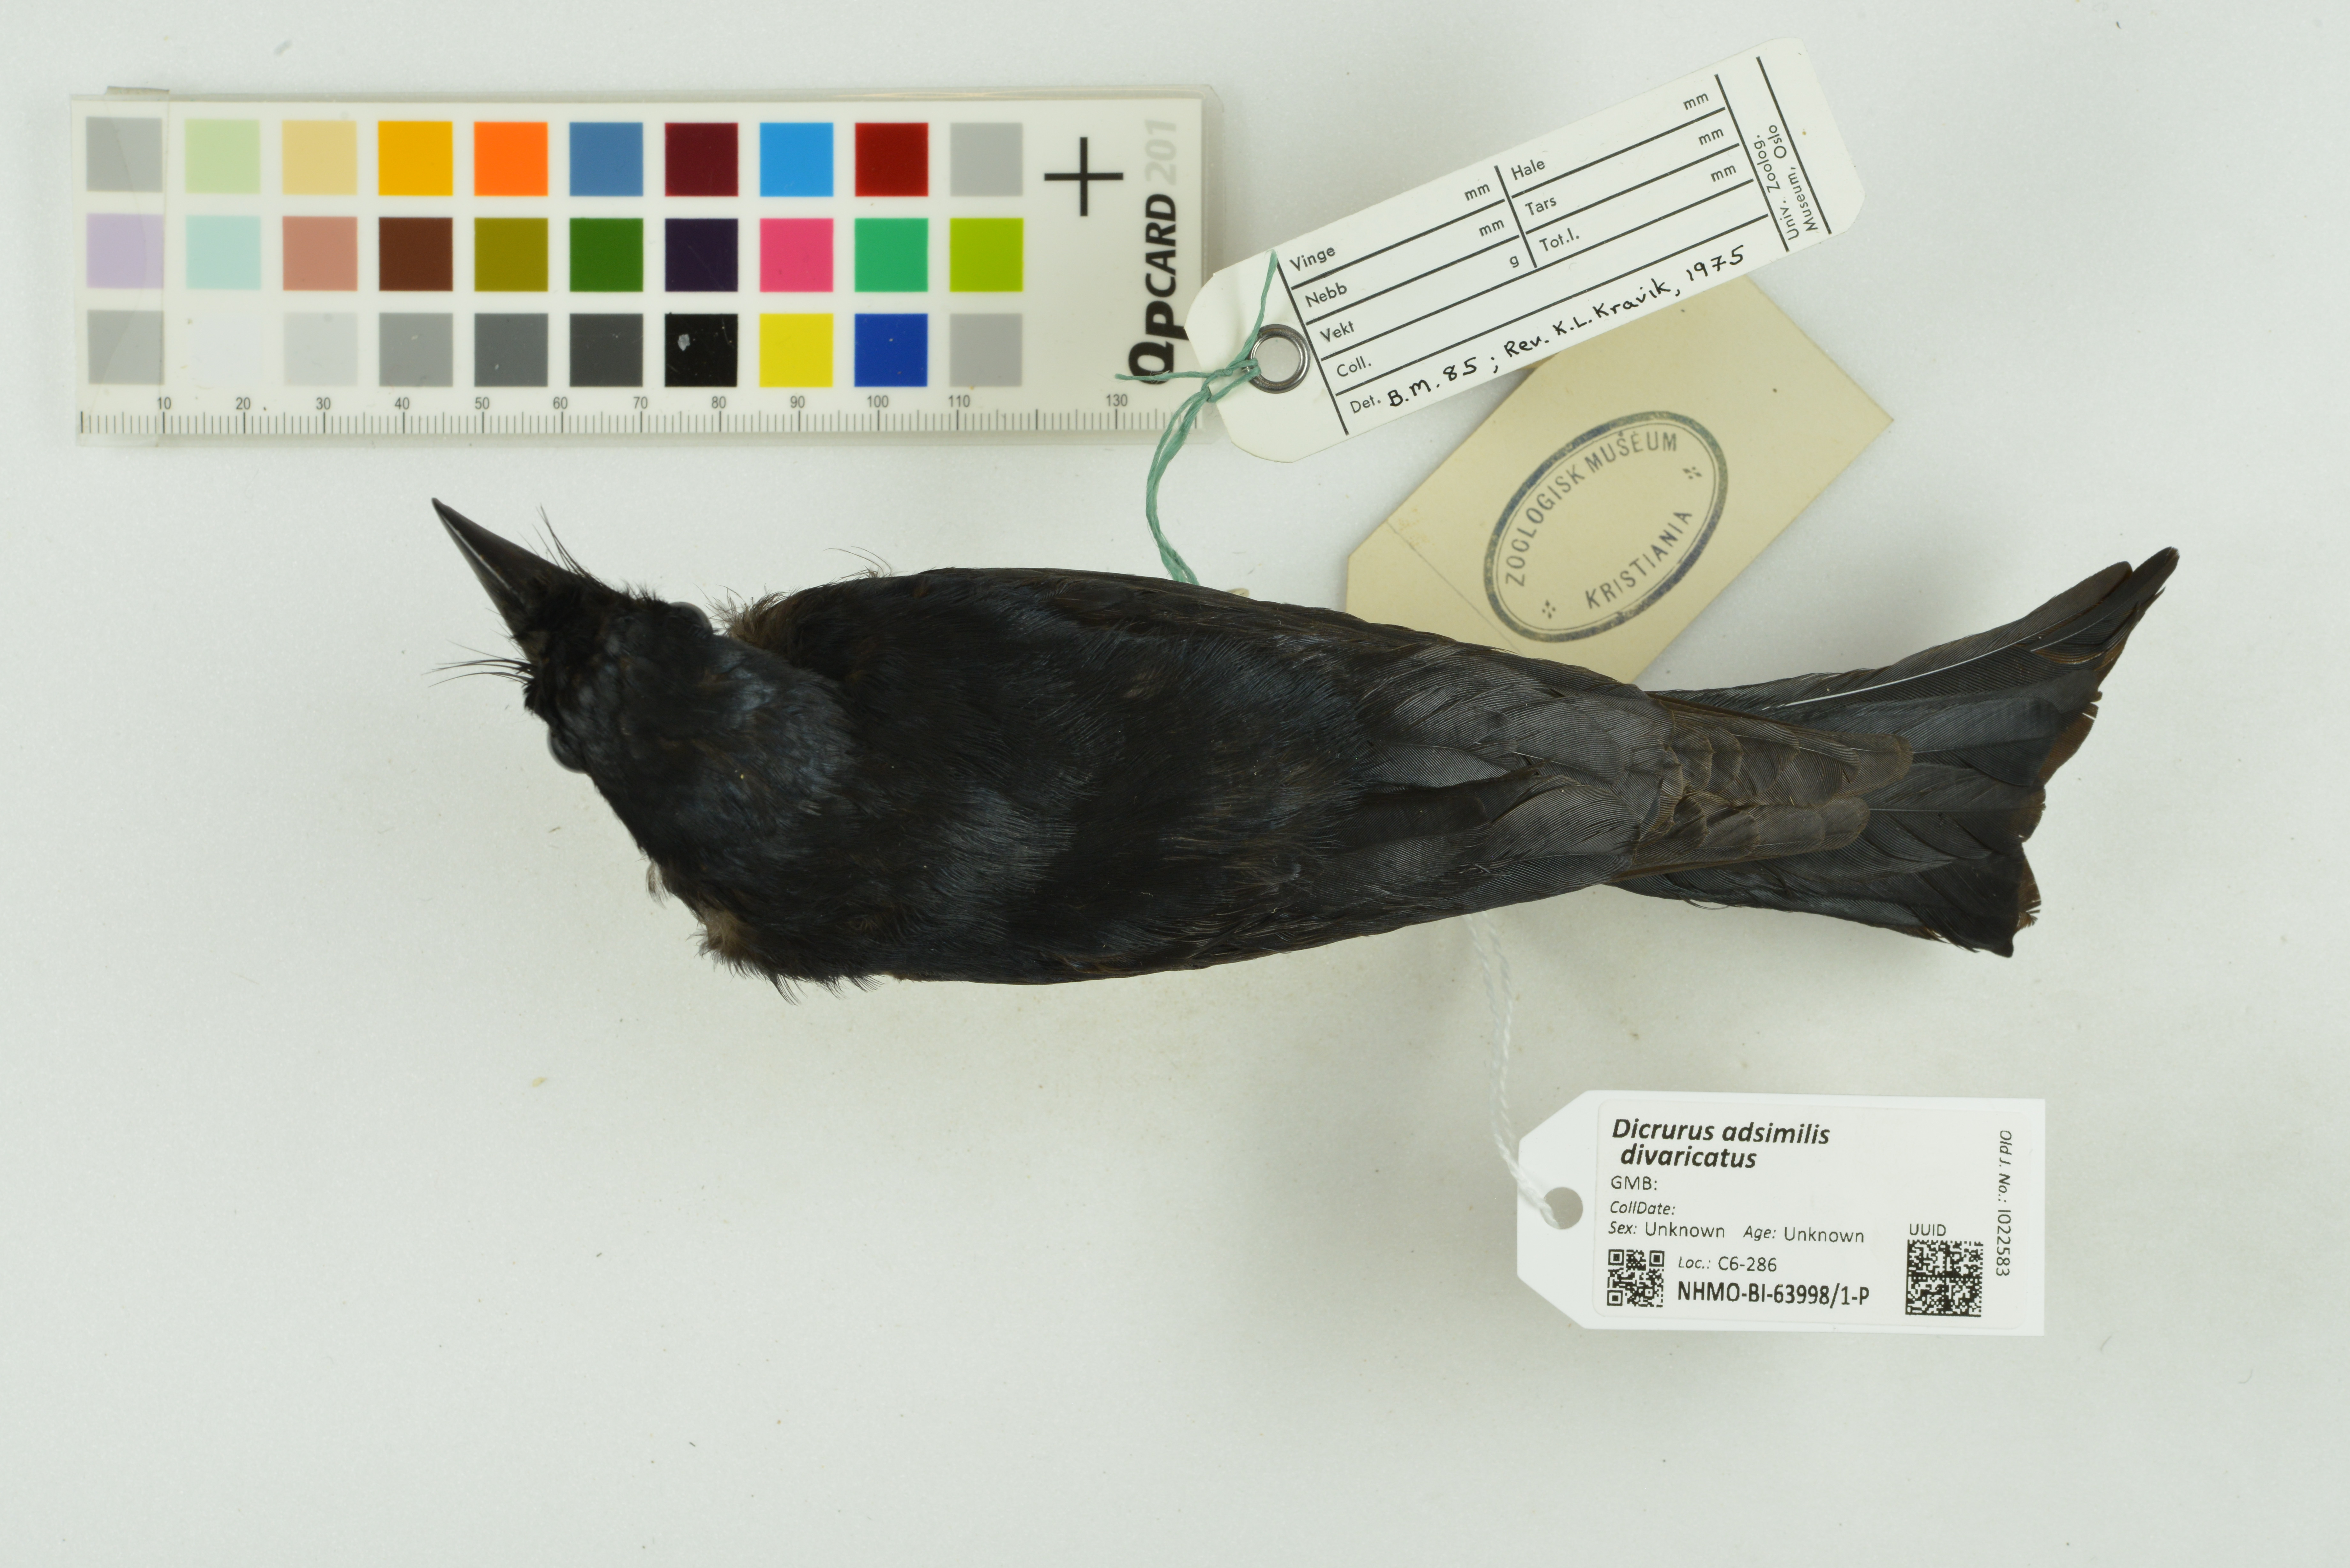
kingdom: Animalia
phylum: Chordata
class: Aves
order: Passeriformes
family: Dicruridae
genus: Dicrurus
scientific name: Dicrurus
